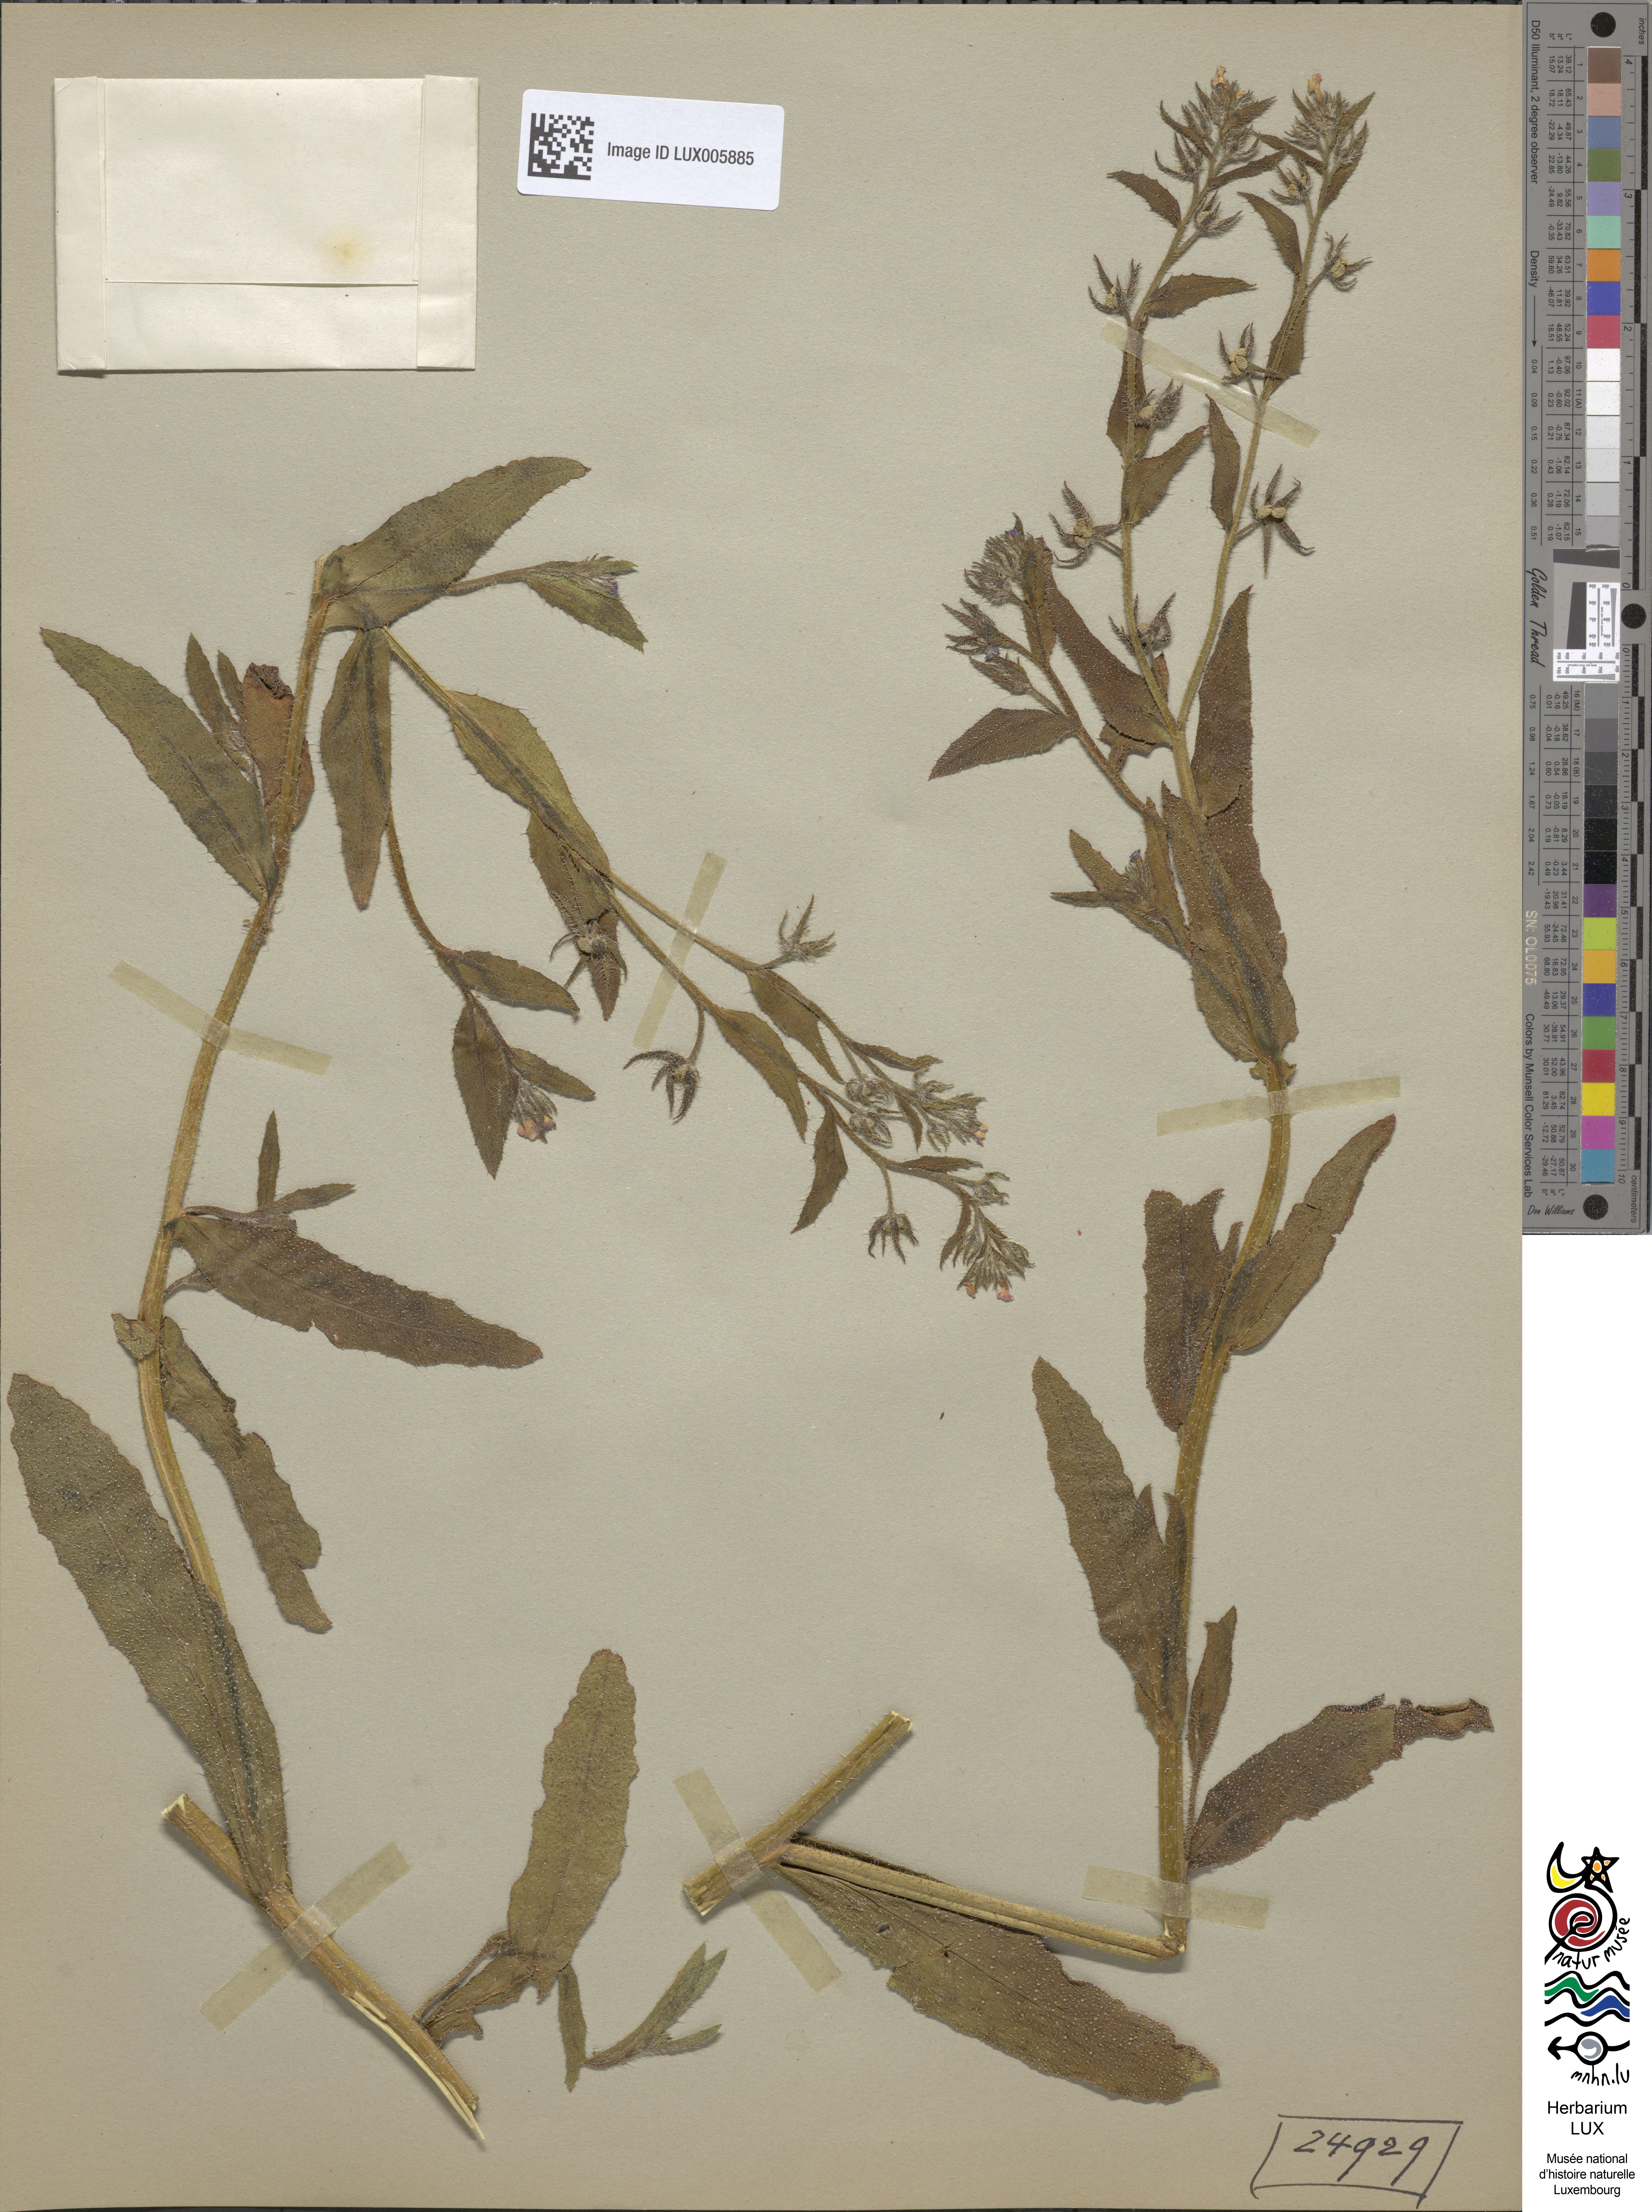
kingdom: Plantae
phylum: Tracheophyta
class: Magnoliopsida
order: Boraginales
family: Boraginaceae
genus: Lycopsis
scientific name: Lycopsis arvensis
